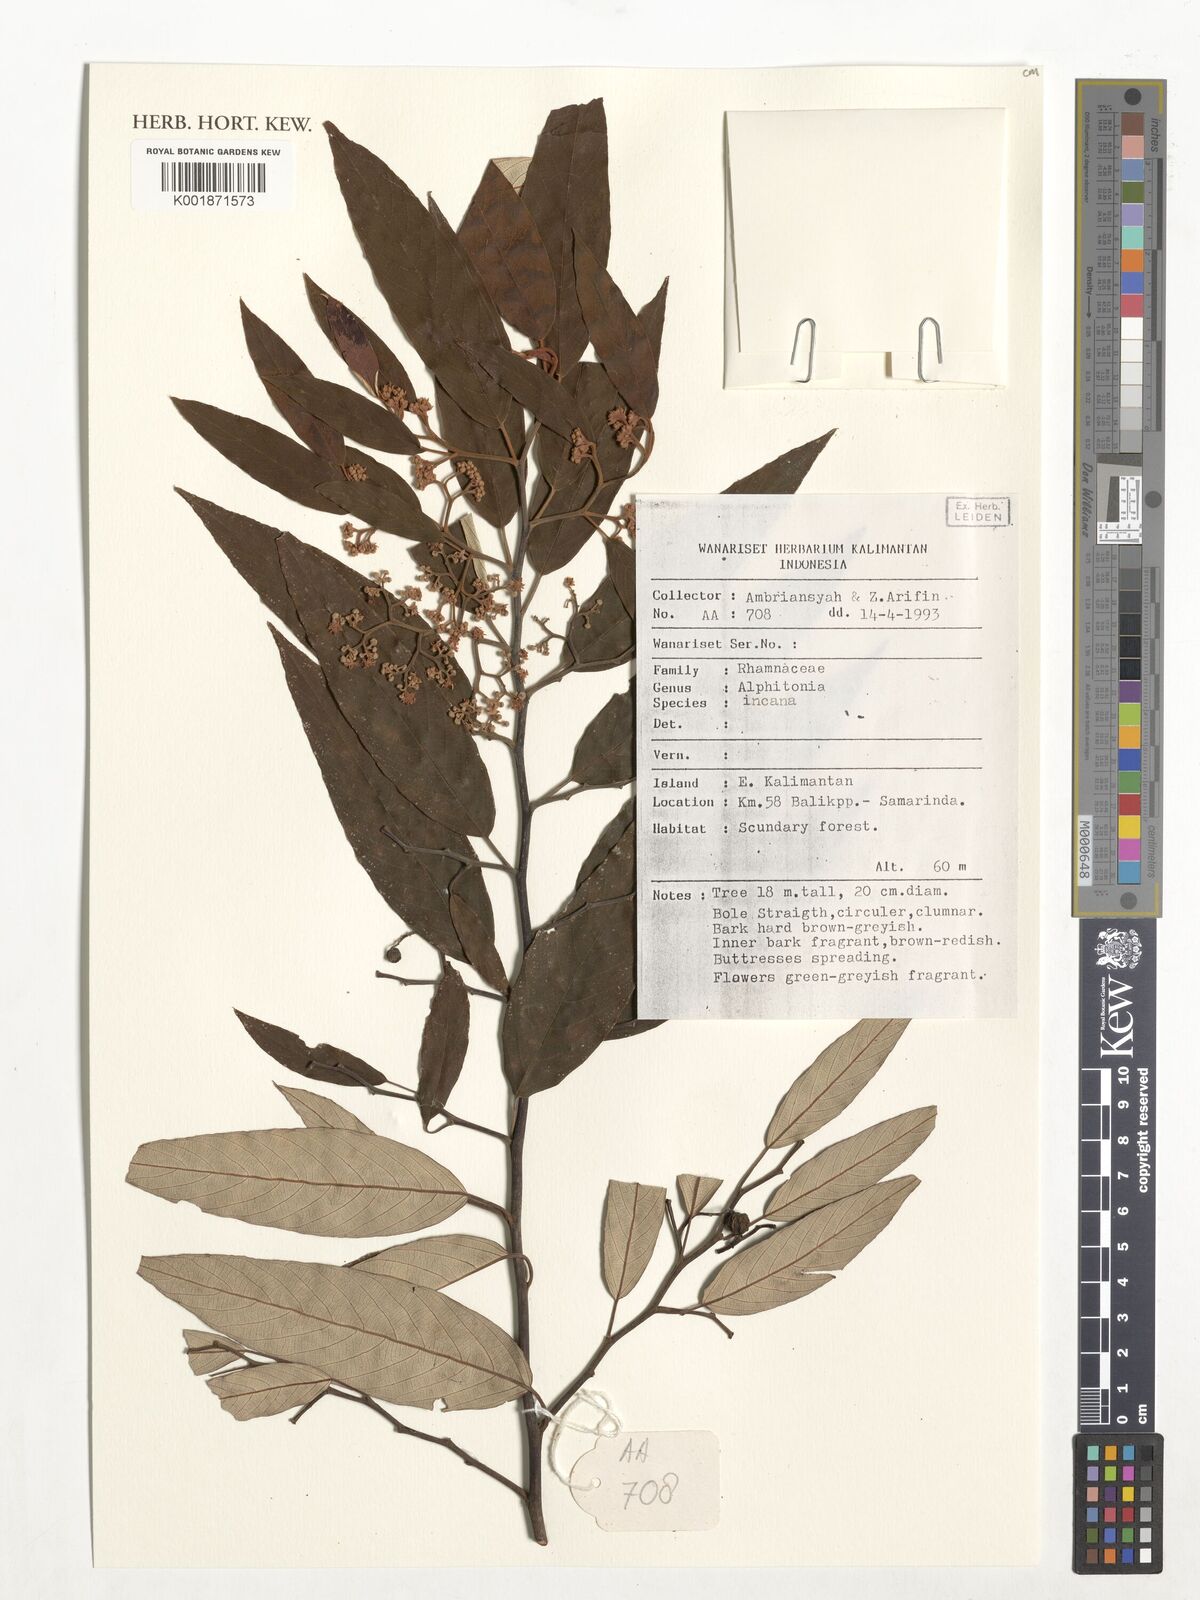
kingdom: Plantae
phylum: Tracheophyta
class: Magnoliopsida
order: Rosales
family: Rhamnaceae
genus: Alphitonia
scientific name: Alphitonia incana
